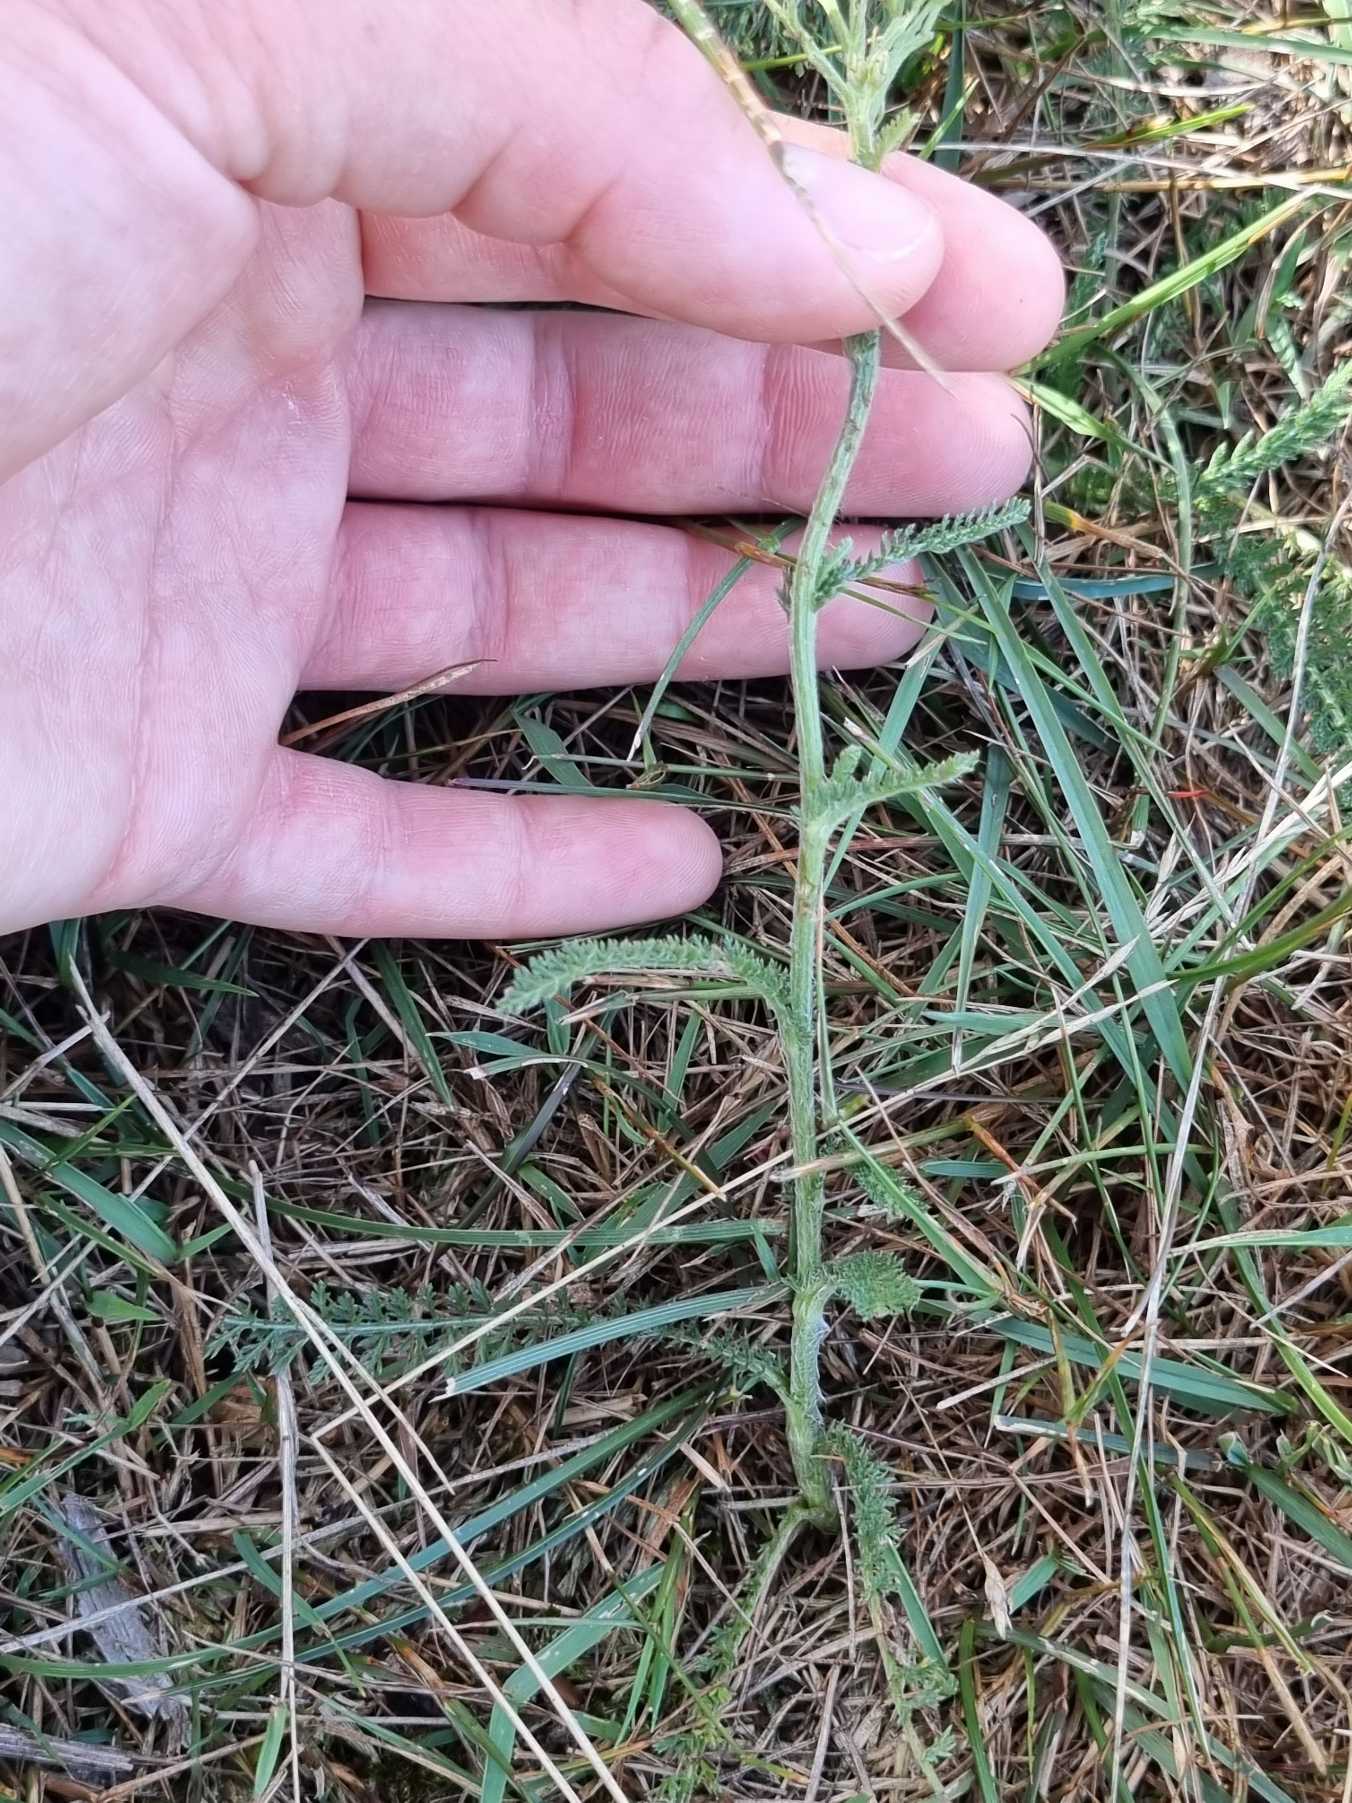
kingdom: Plantae
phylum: Tracheophyta
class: Magnoliopsida
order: Asterales
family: Asteraceae
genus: Achillea
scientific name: Achillea millefolium
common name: Almindelig røllike
